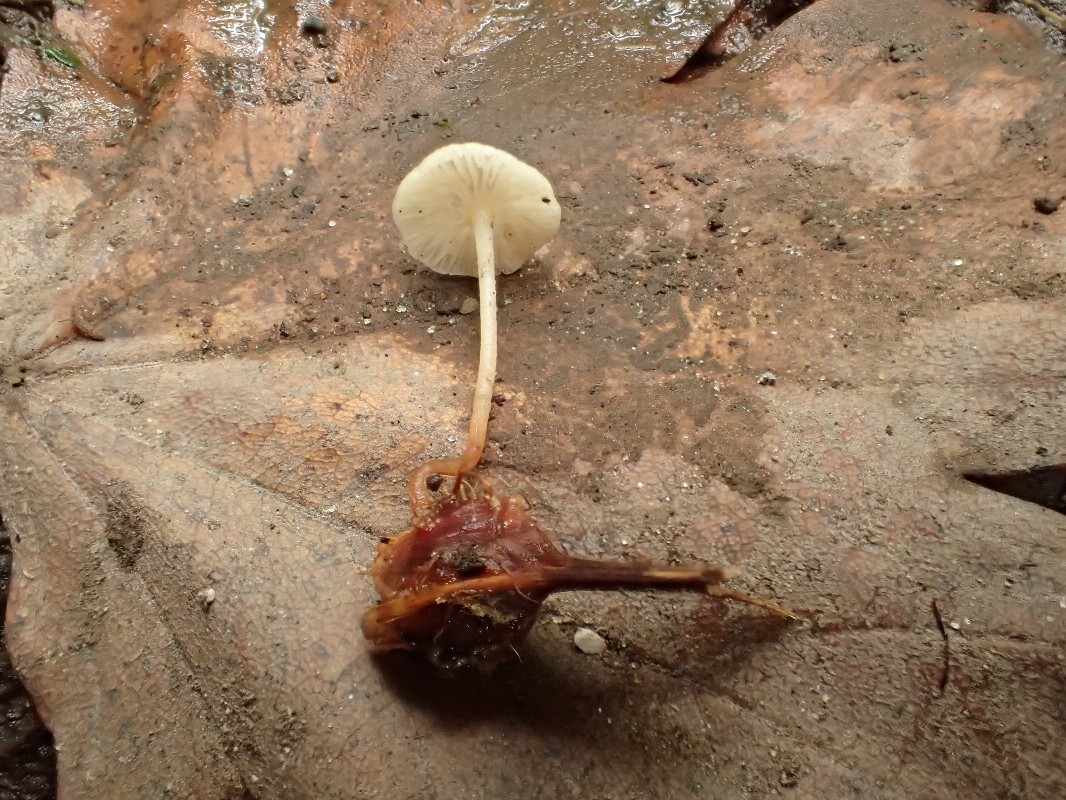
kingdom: Fungi
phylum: Basidiomycota
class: Agaricomycetes
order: Agaricales
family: Omphalotaceae
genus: Collybiopsis
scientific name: Collybiopsis vaillantii
